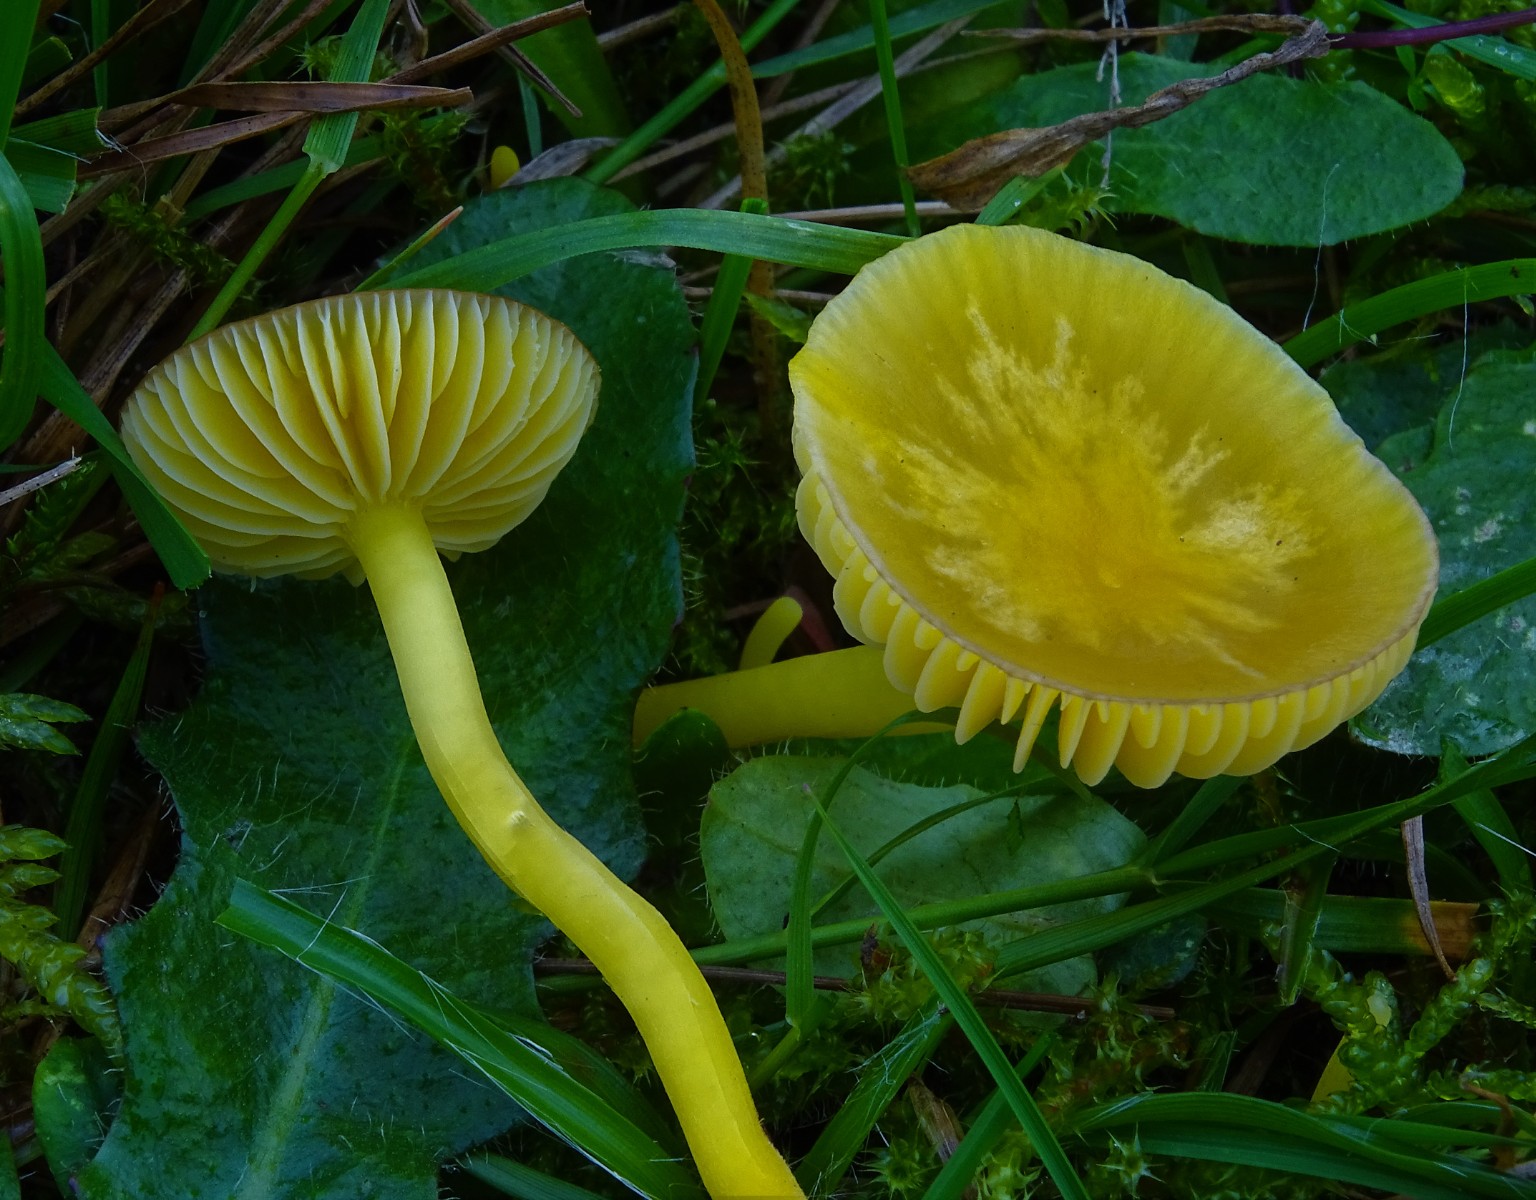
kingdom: Fungi
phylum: Basidiomycota
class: Agaricomycetes
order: Agaricales
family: Hygrophoraceae
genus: Hygrocybe
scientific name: Hygrocybe chlorophana
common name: gul vokshat
